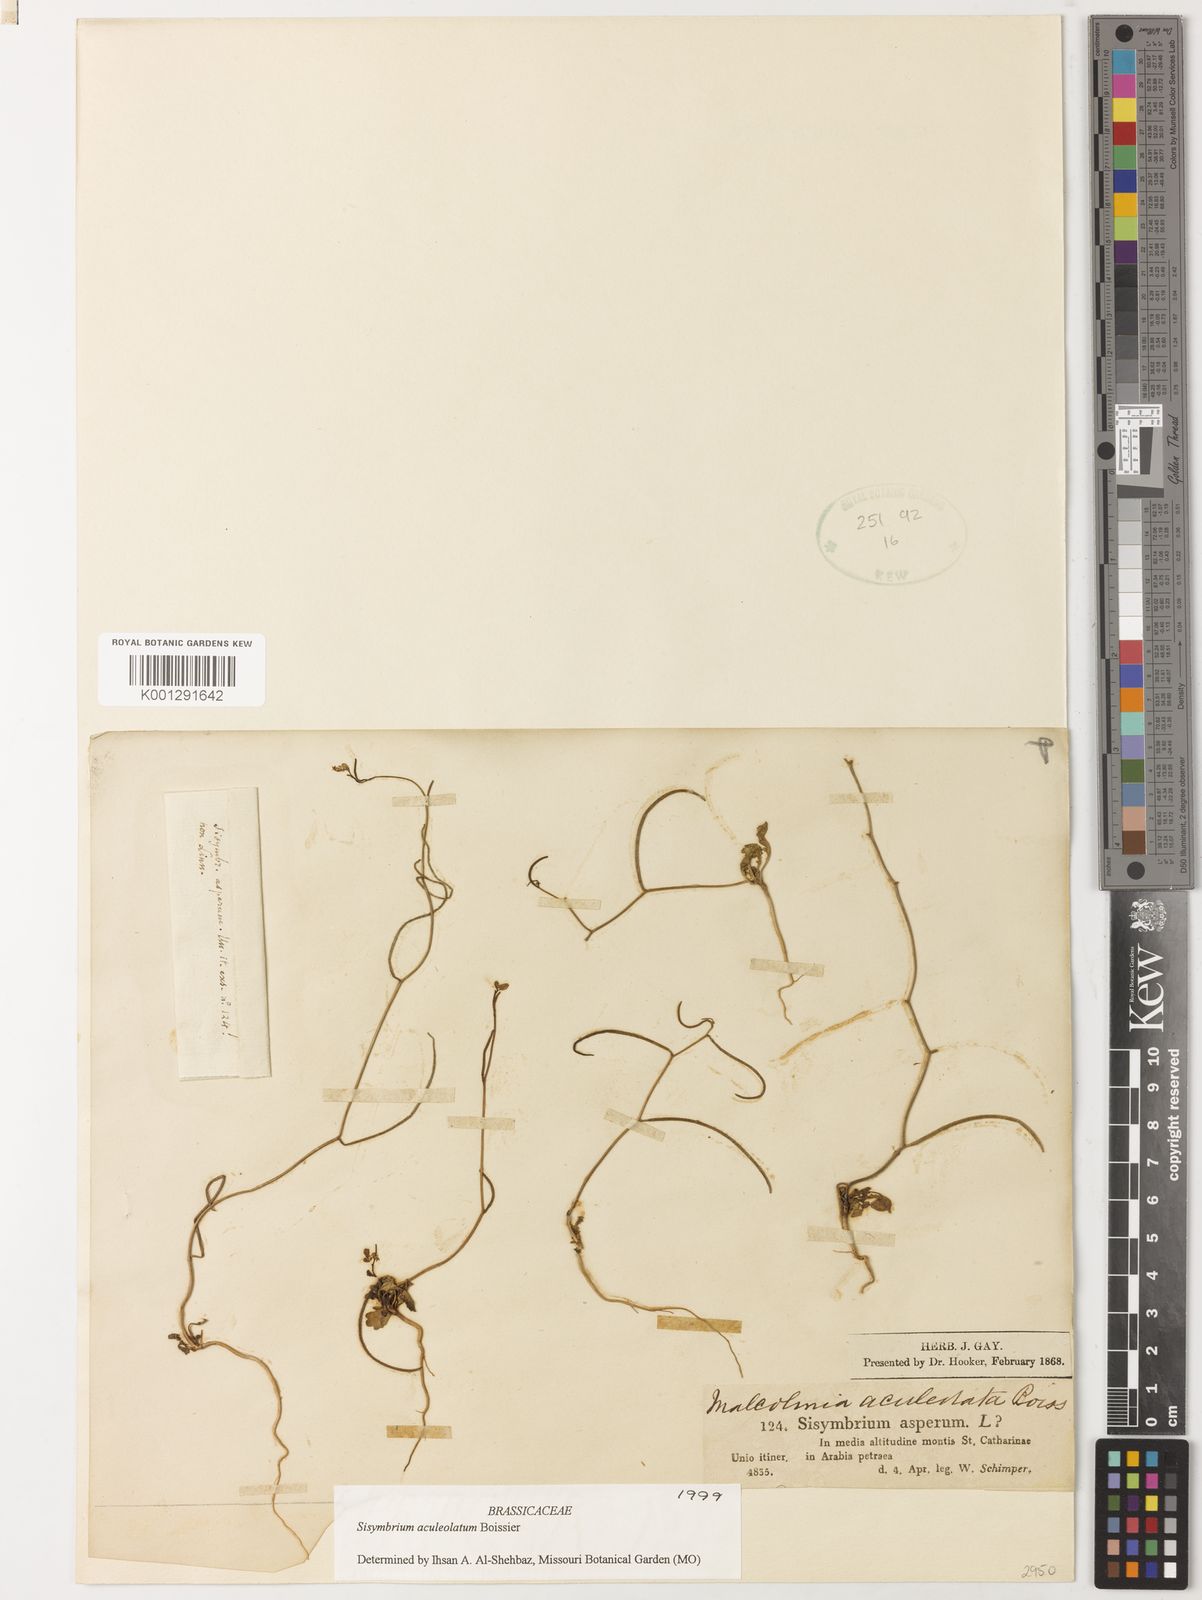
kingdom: Plantae
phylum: Tracheophyta
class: Magnoliopsida
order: Brassicales
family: Brassicaceae
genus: Sisymbrium
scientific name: Sisymbrium aculeolatum
